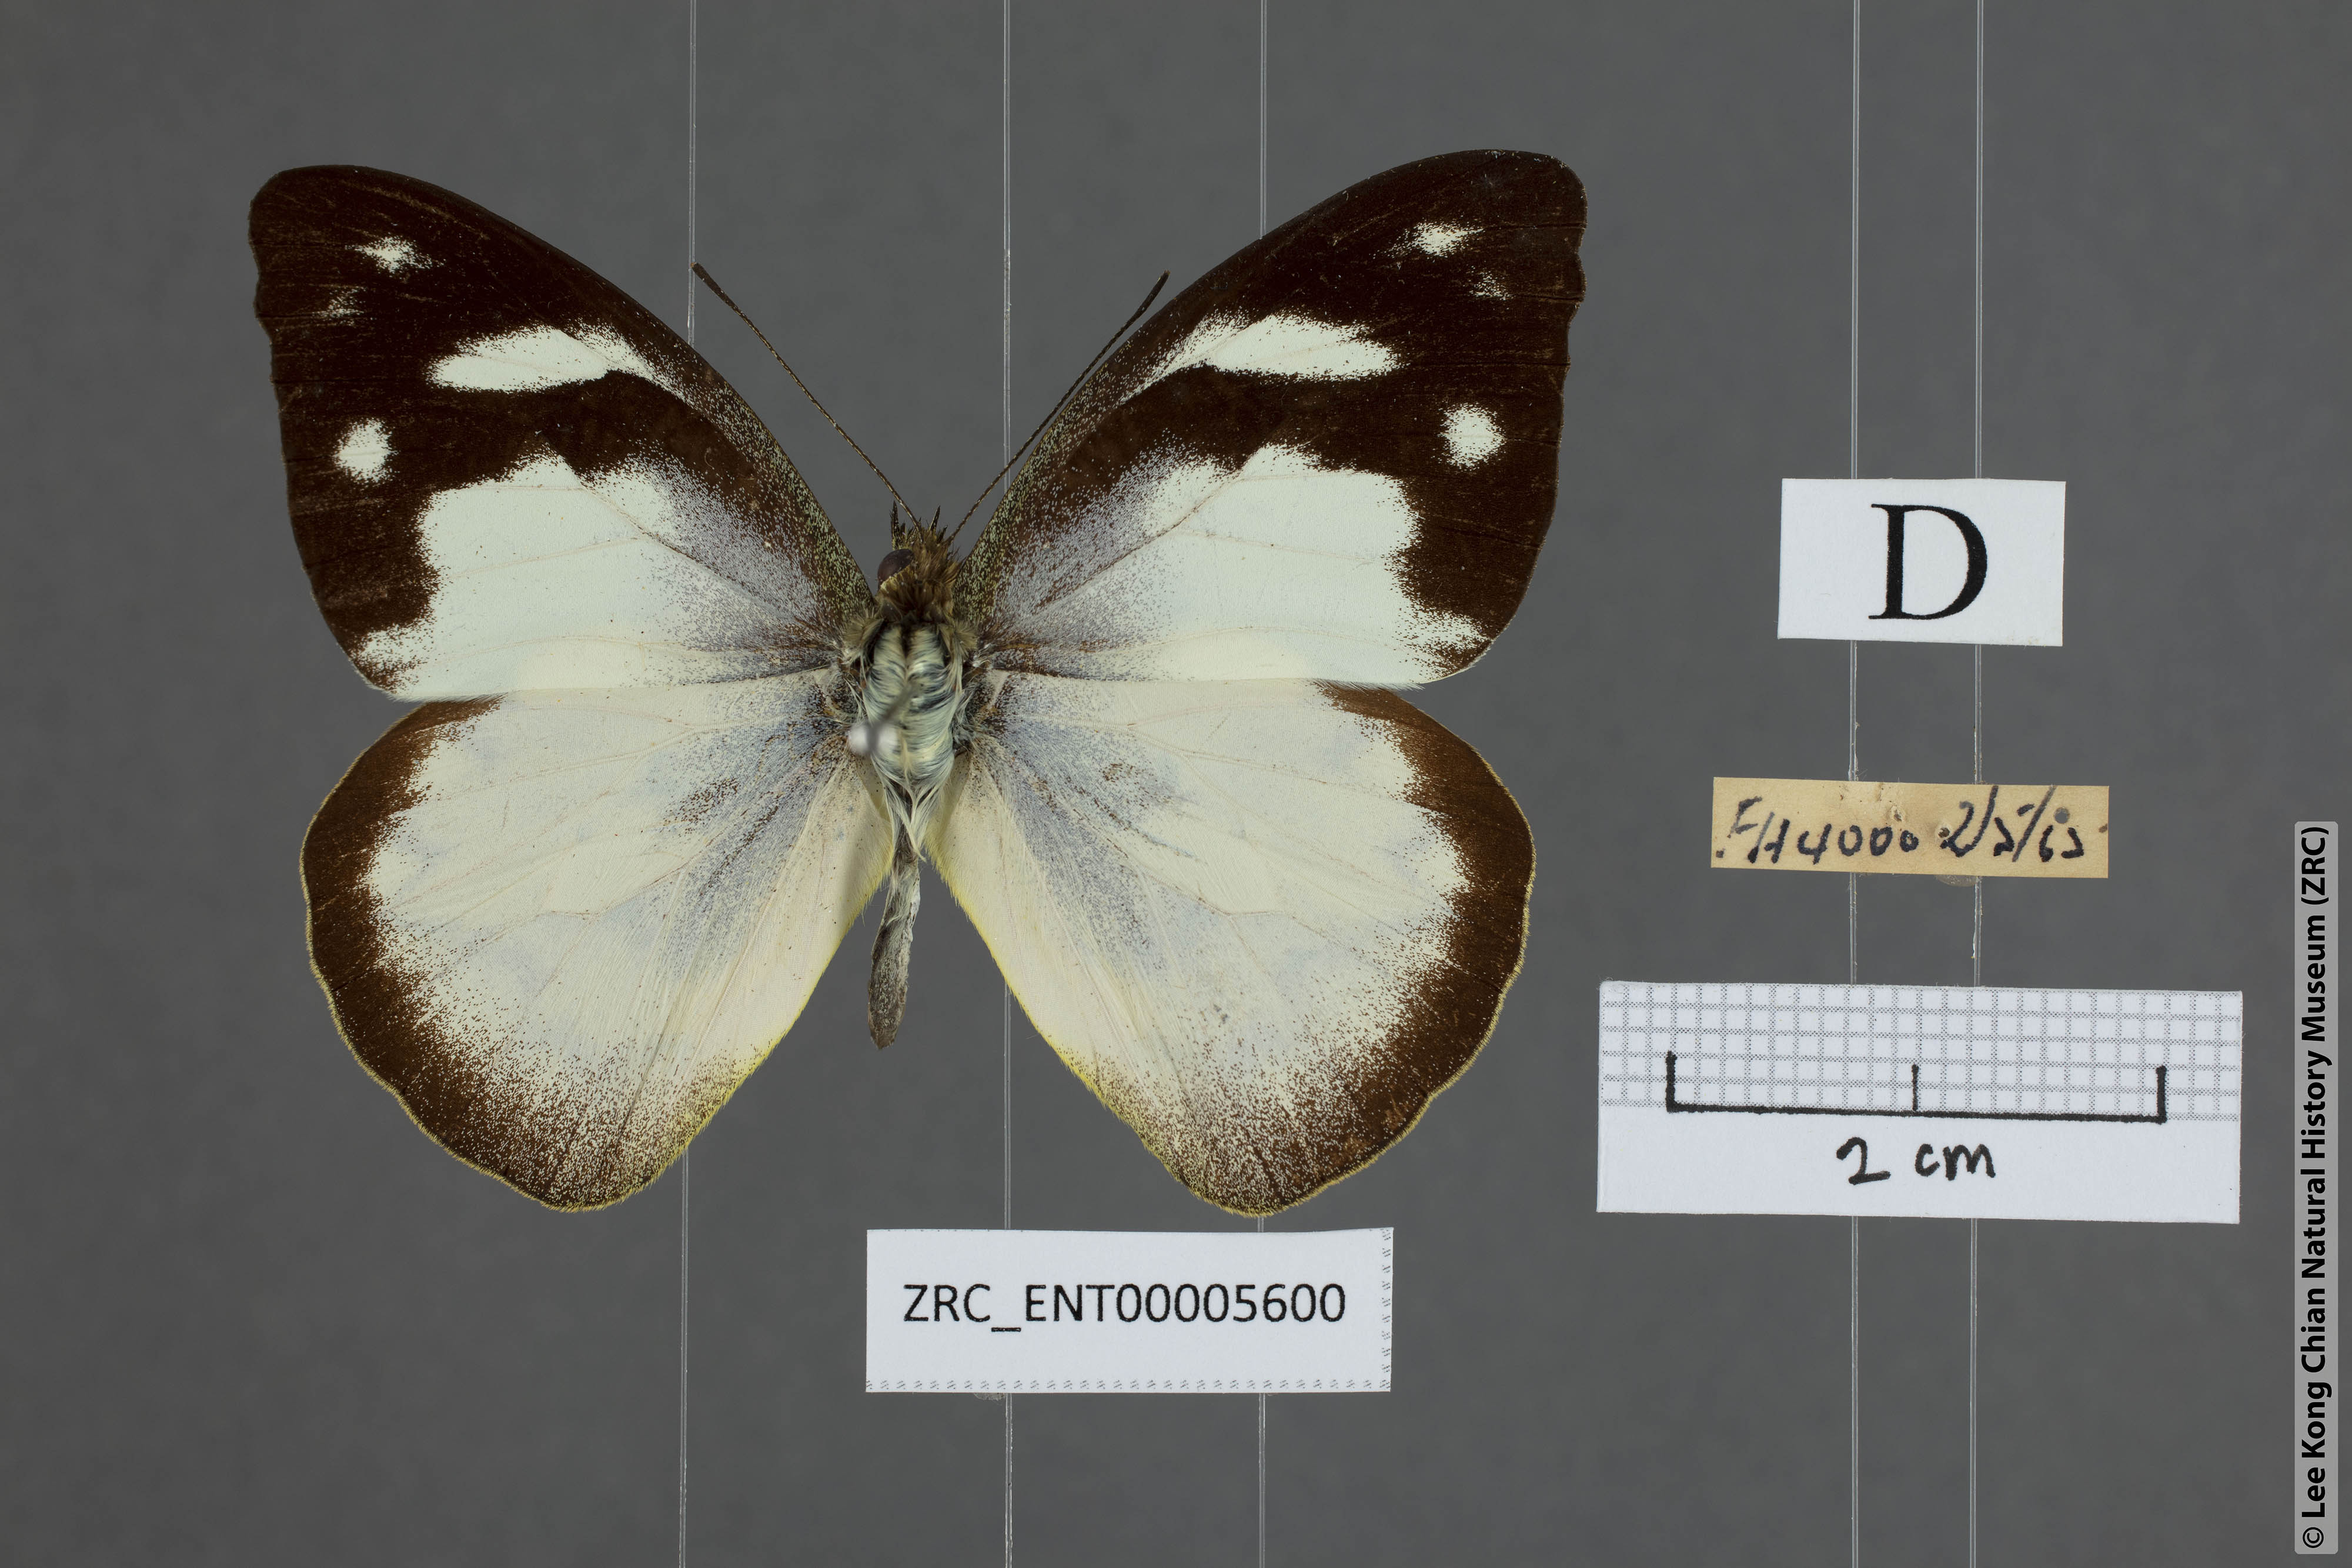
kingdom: Animalia
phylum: Arthropoda
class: Insecta
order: Lepidoptera
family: Pieridae
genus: Appias
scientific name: Appias pandione
